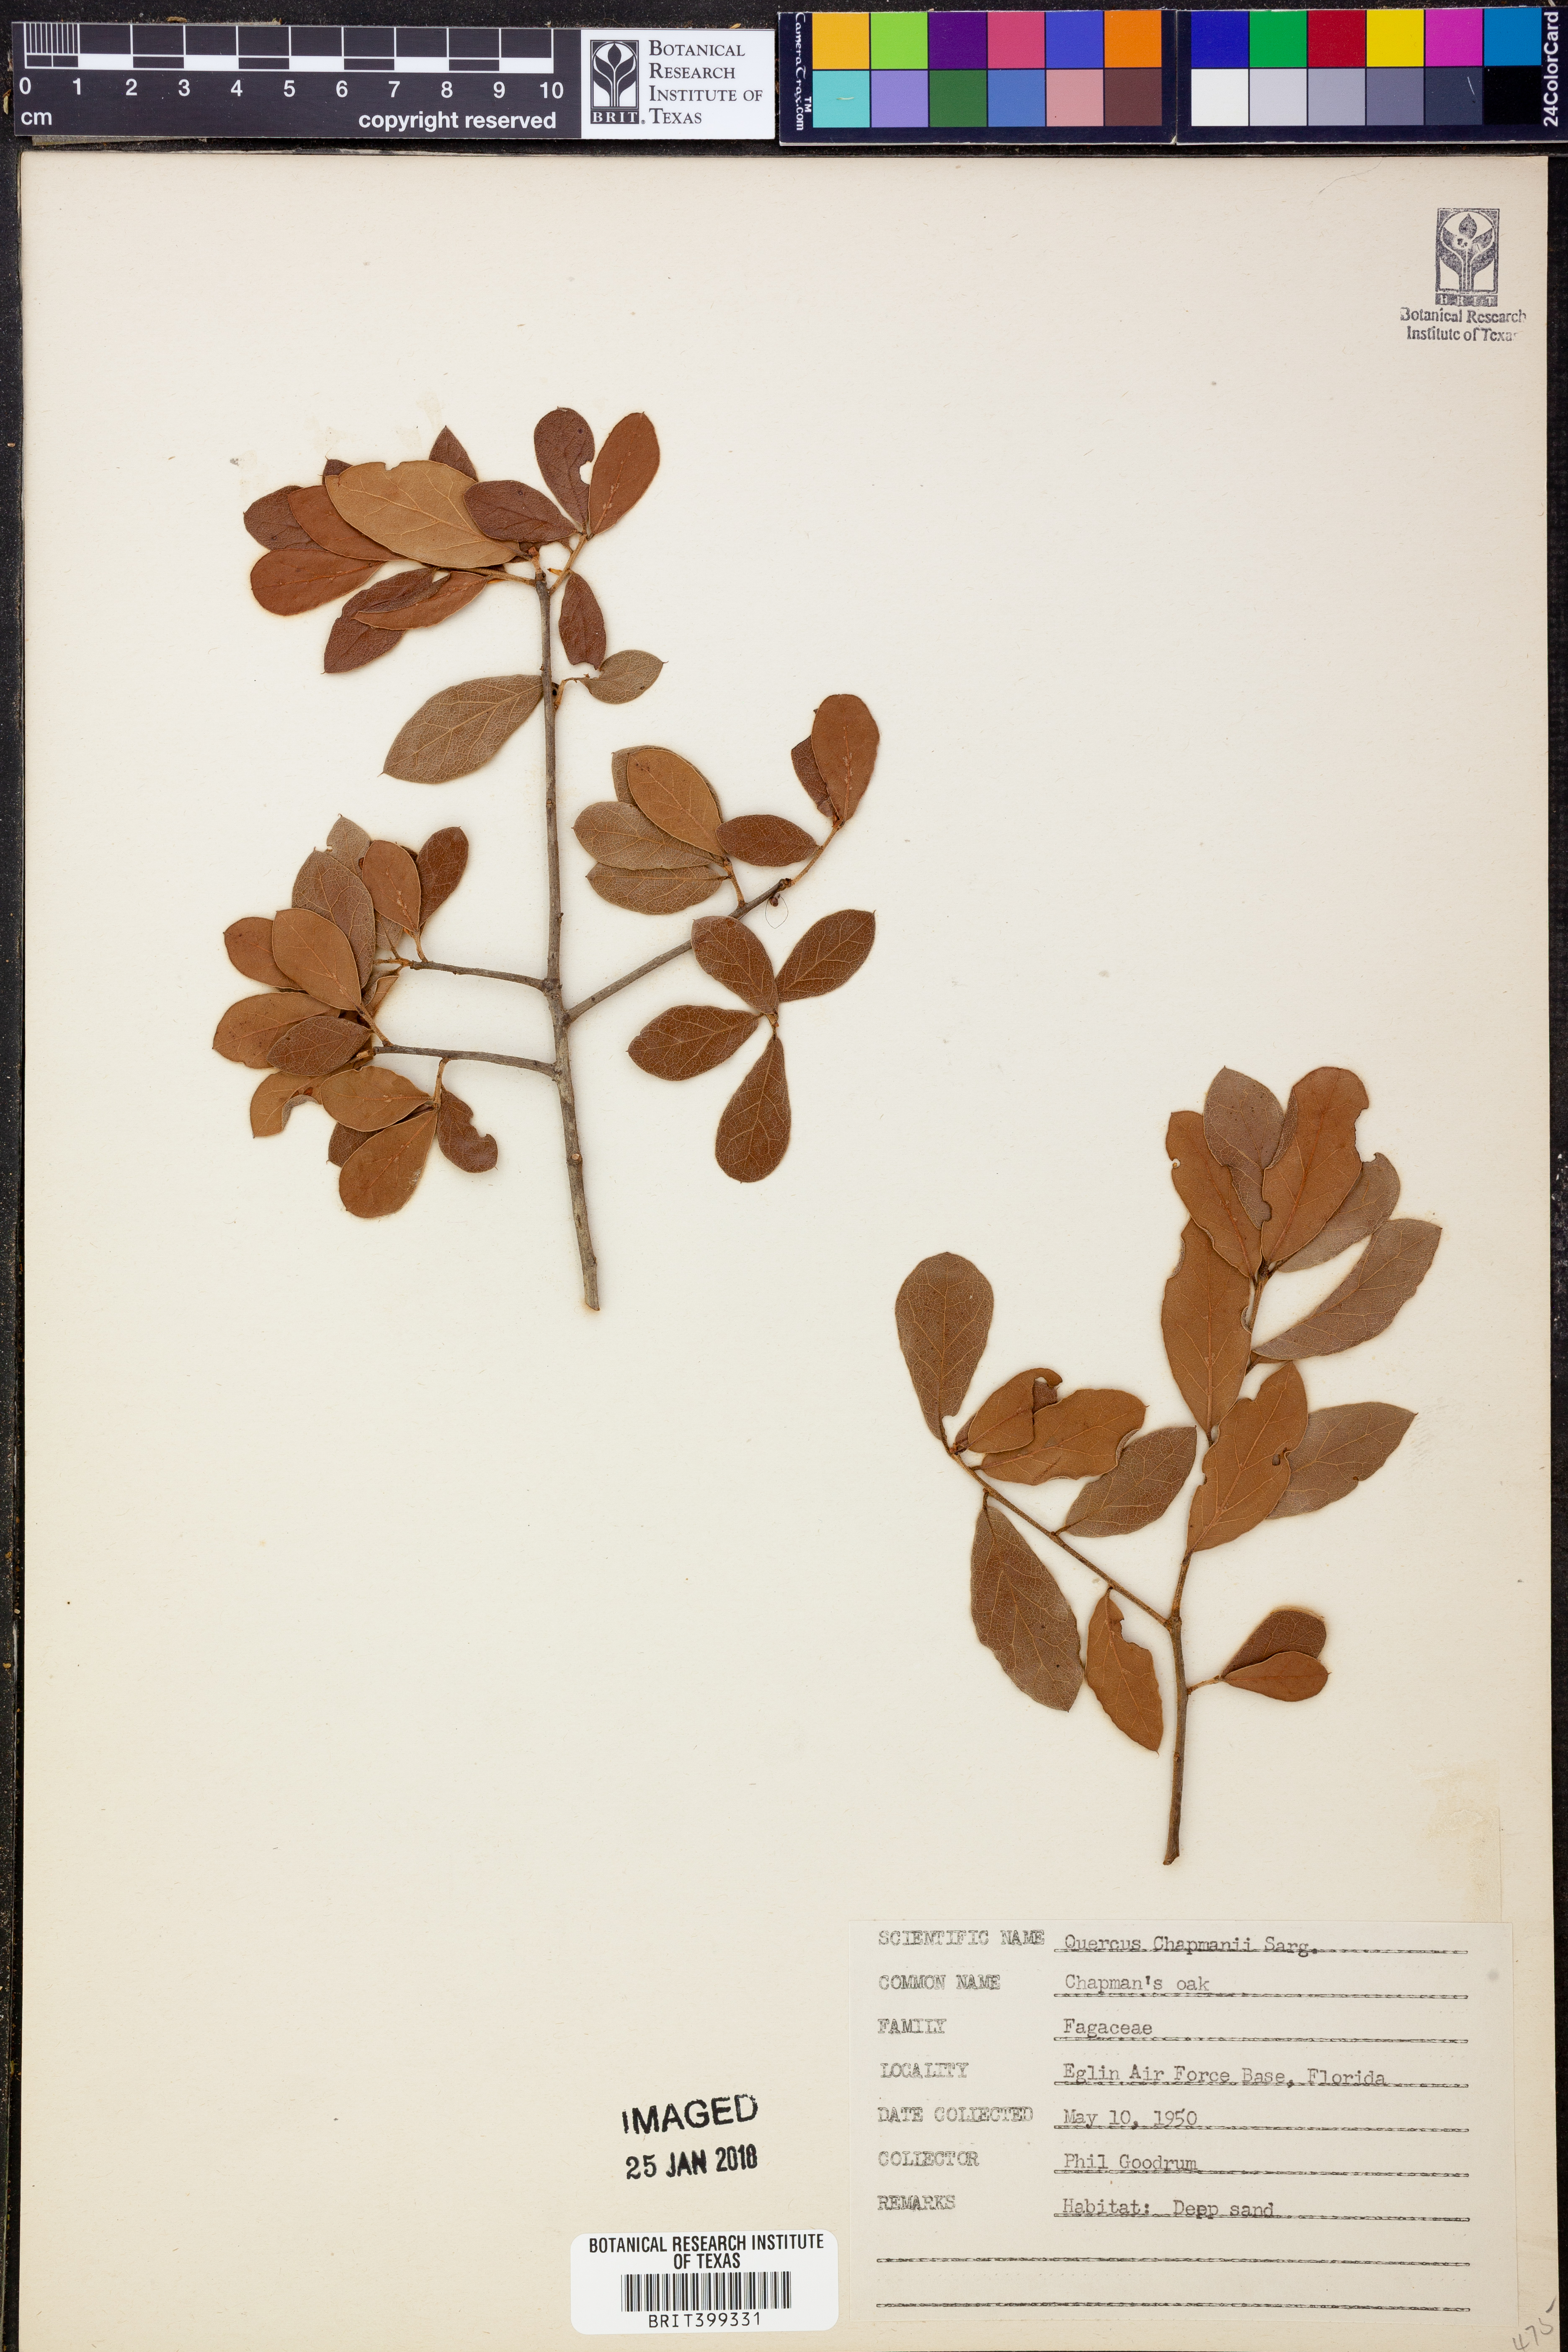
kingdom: Plantae
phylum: Tracheophyta
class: Magnoliopsida
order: Fagales
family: Fagaceae
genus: Quercus
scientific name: Quercus chapmanii
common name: Chapman oak
